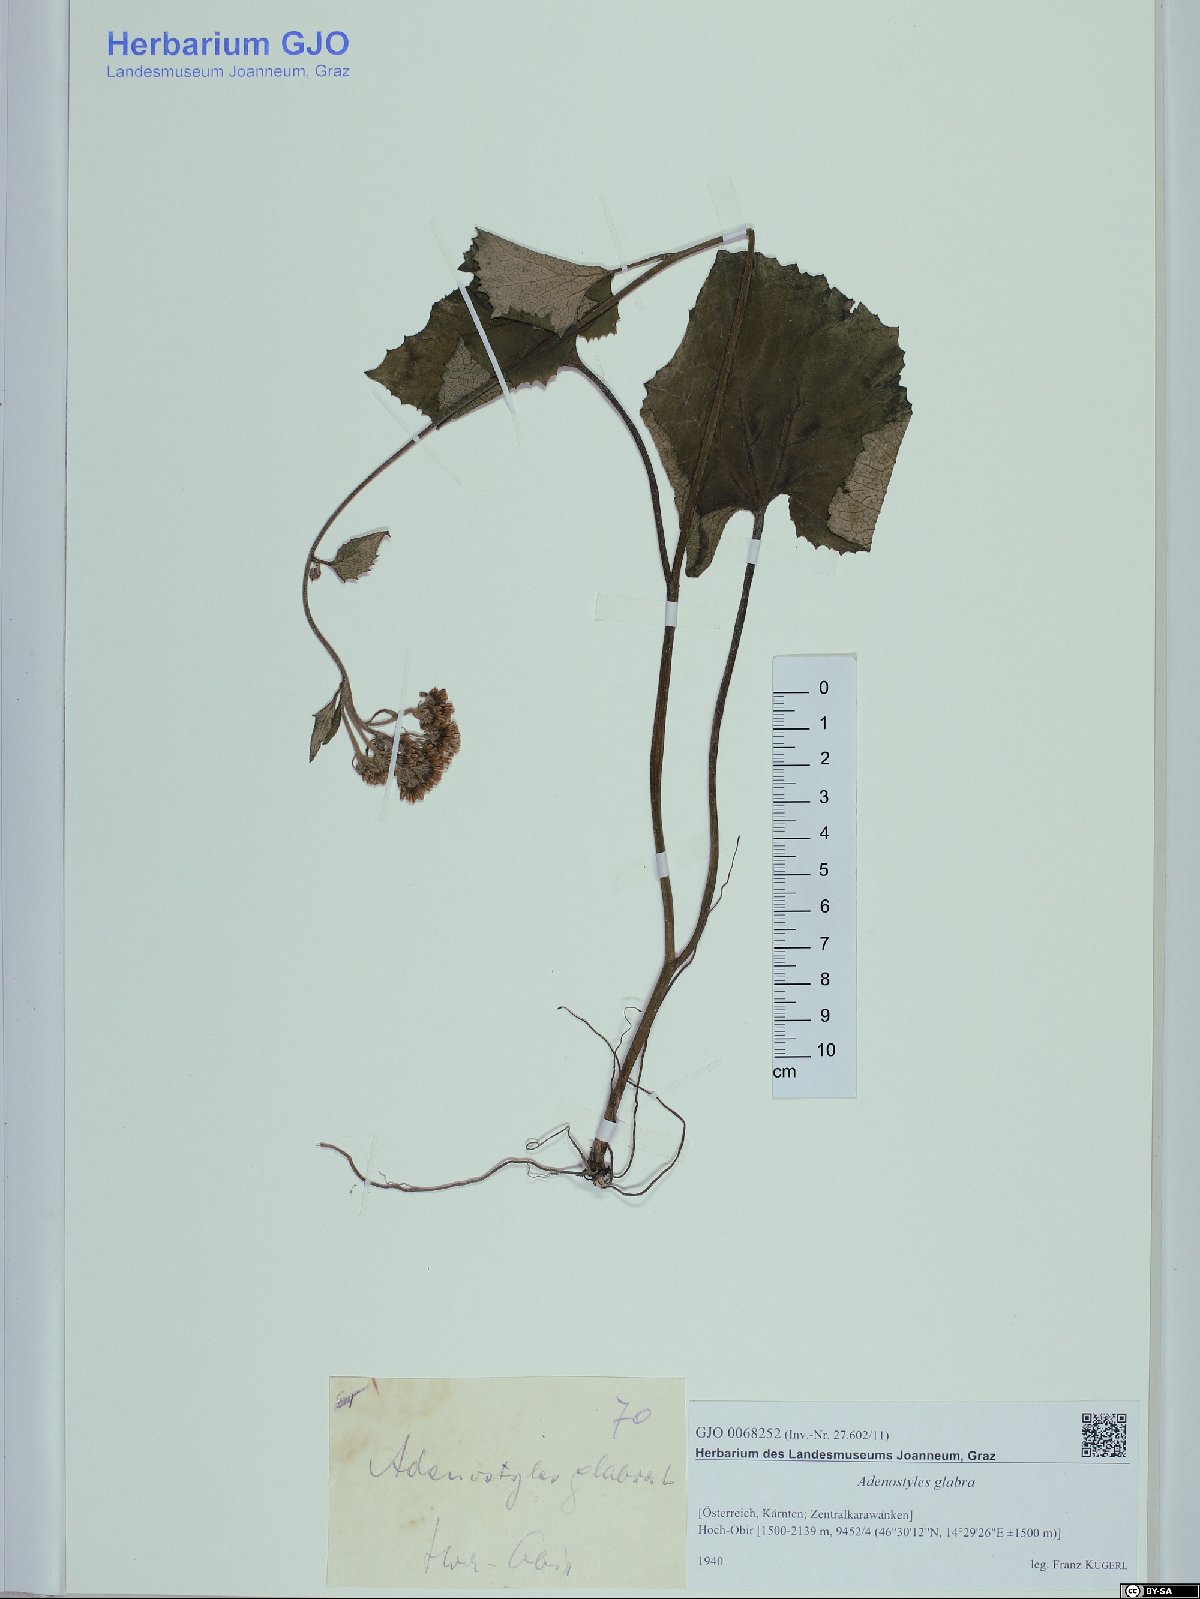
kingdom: Plantae
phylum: Tracheophyta
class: Magnoliopsida
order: Asterales
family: Asteraceae
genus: Adenostyles
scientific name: Adenostyles alpina
